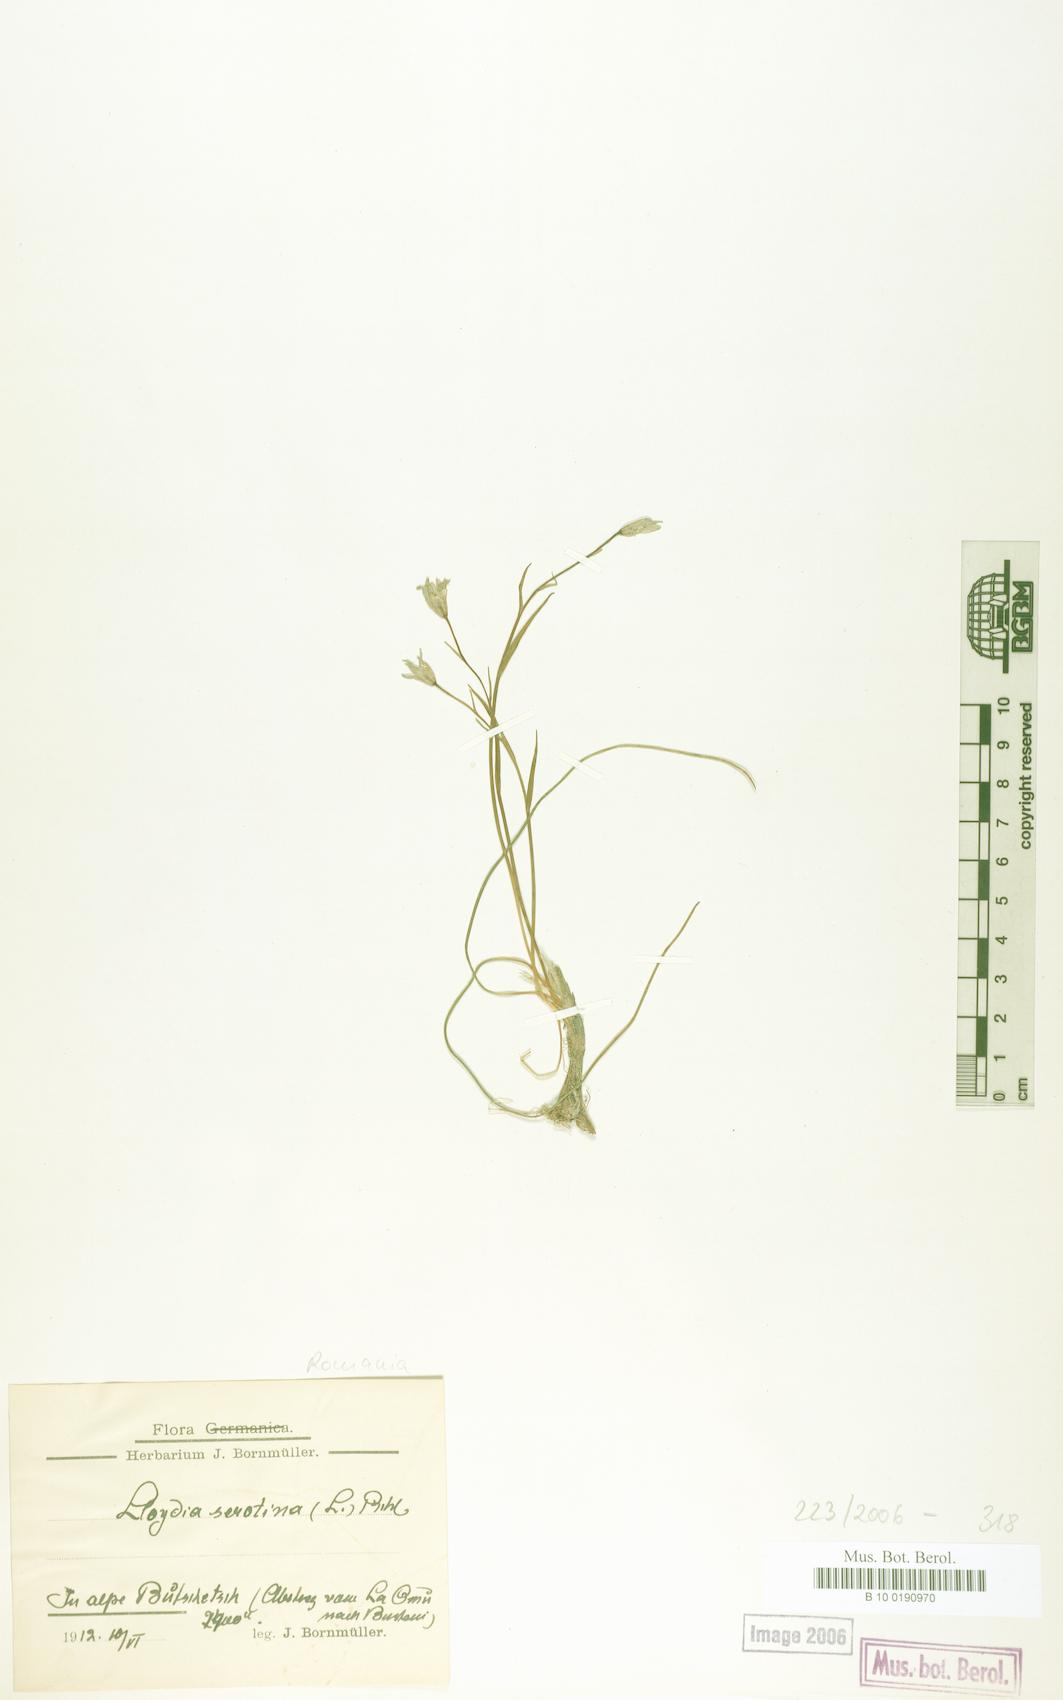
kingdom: Plantae
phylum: Tracheophyta
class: Liliopsida
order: Liliales
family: Liliaceae
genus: Gagea
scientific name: Gagea serotina
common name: Snowdon lily
